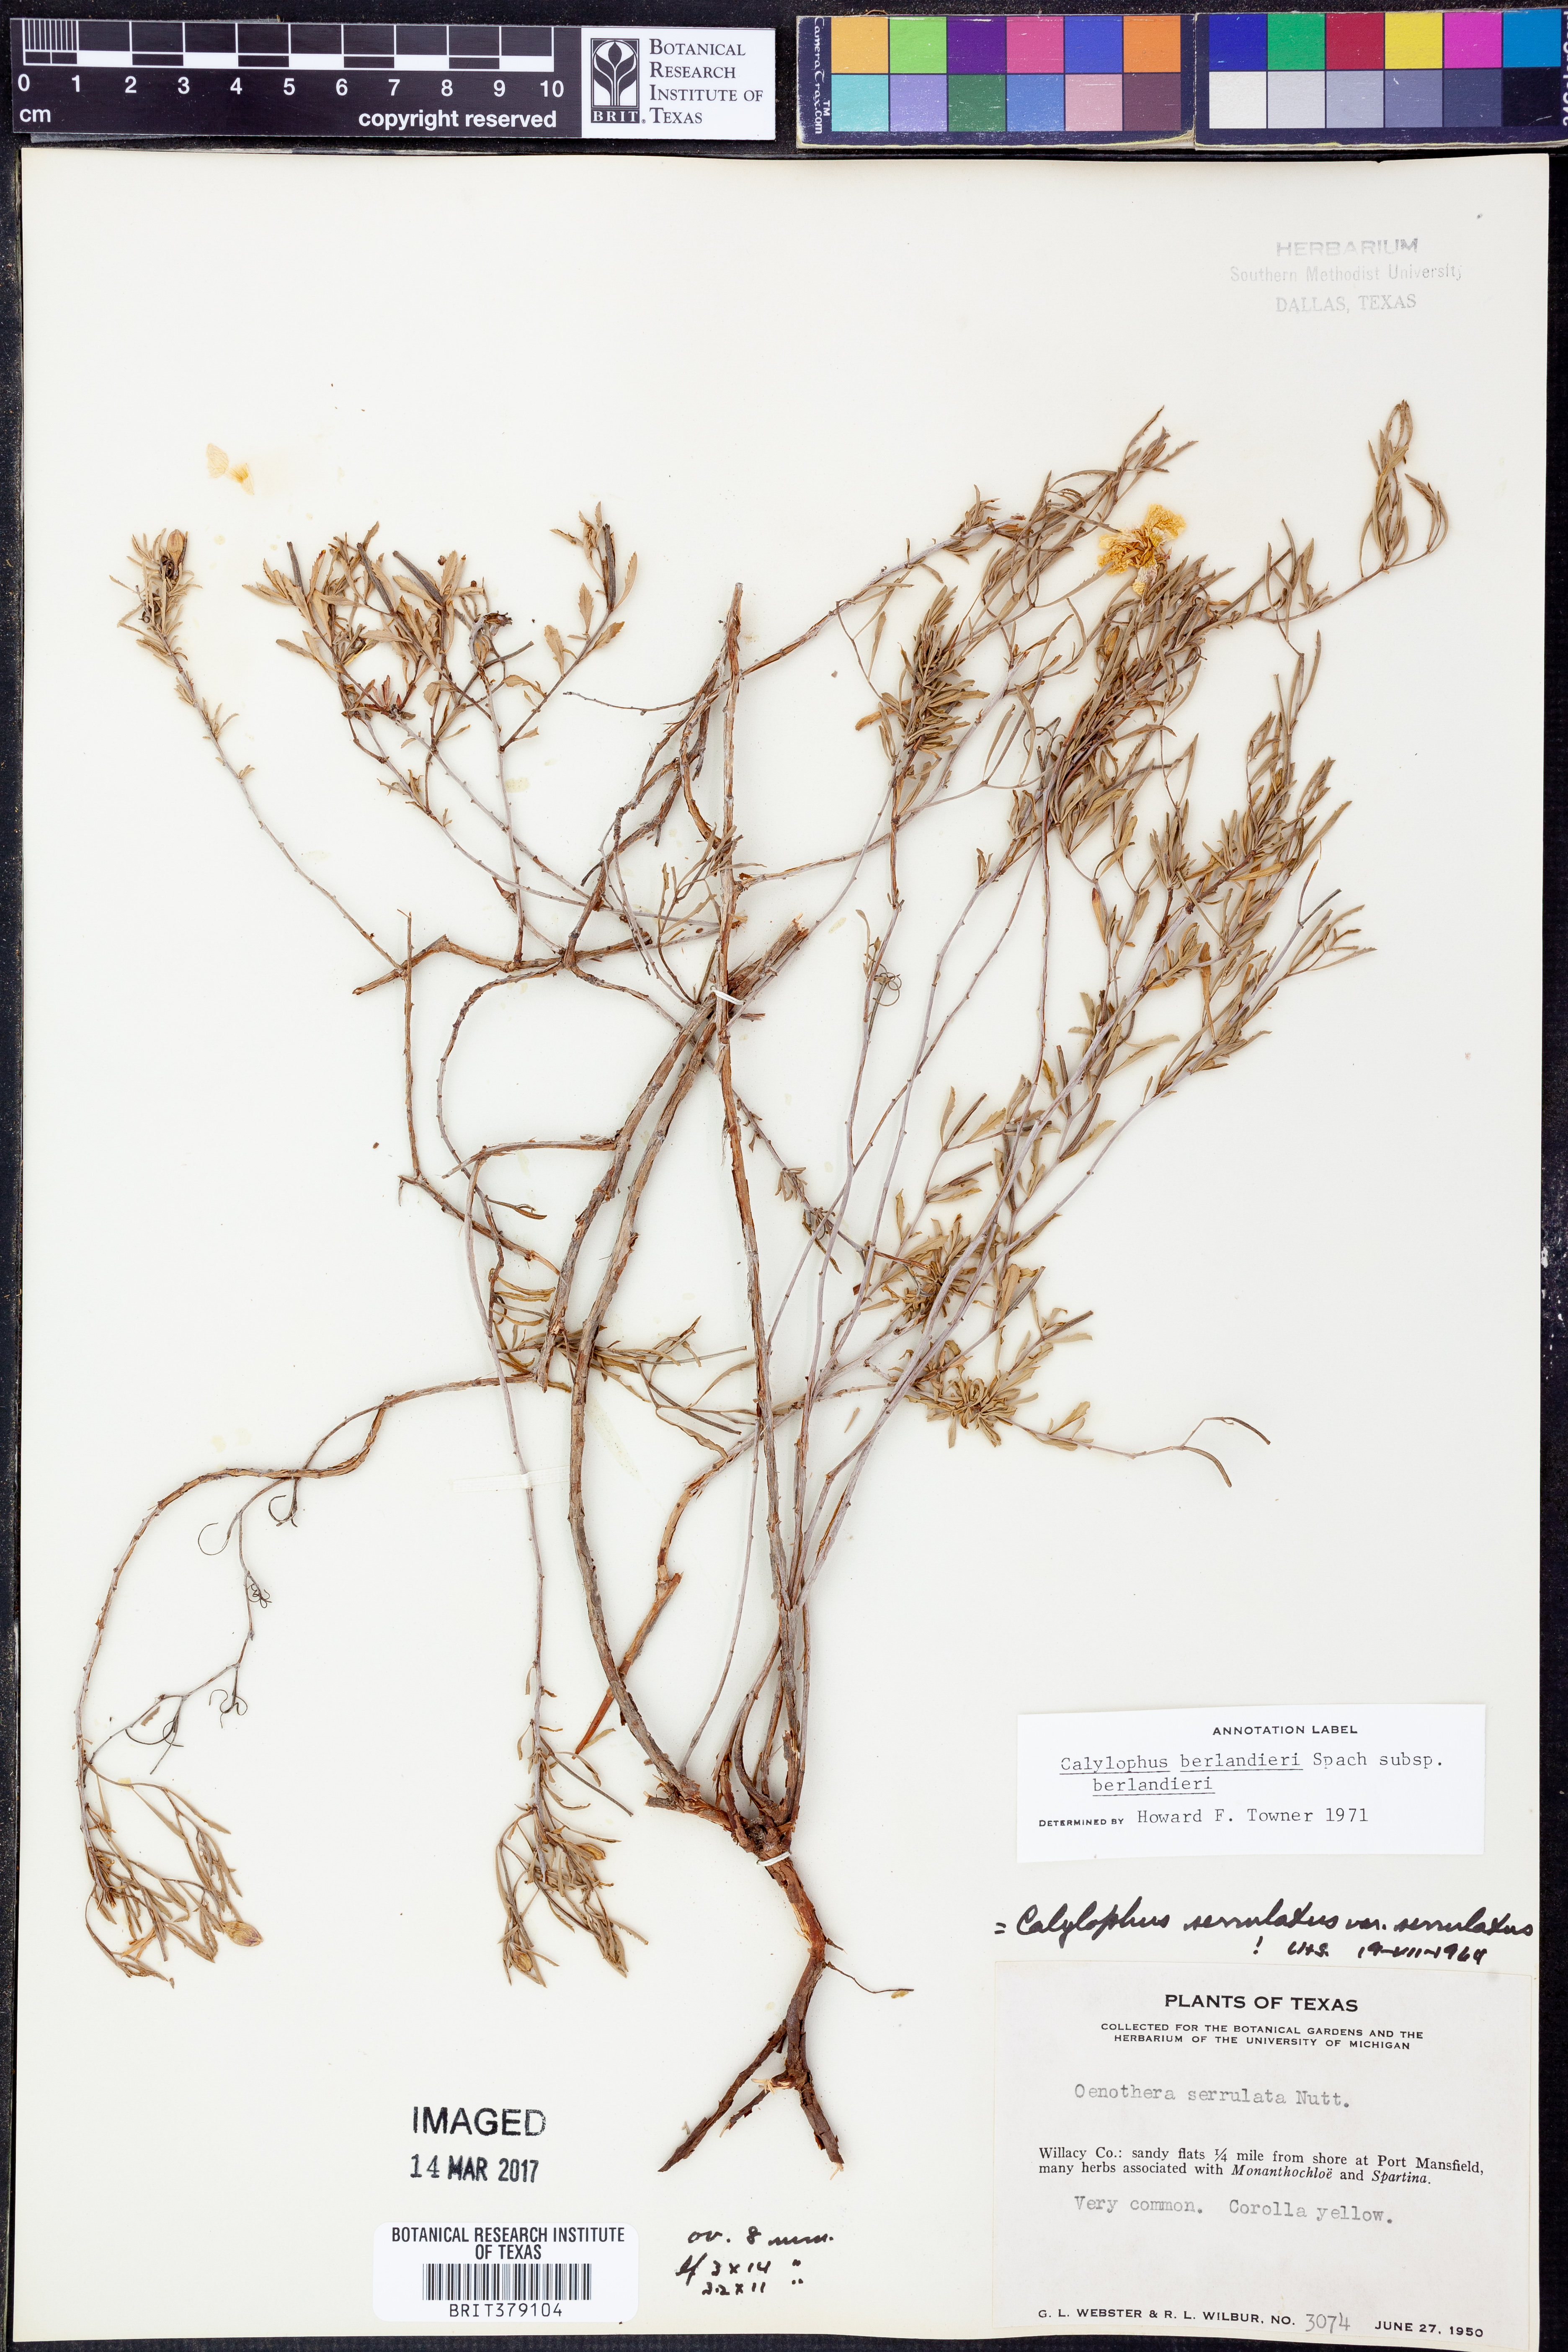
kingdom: Plantae
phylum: Tracheophyta
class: Magnoliopsida
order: Myrtales
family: Onagraceae
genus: Oenothera
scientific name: Oenothera capillifolia
